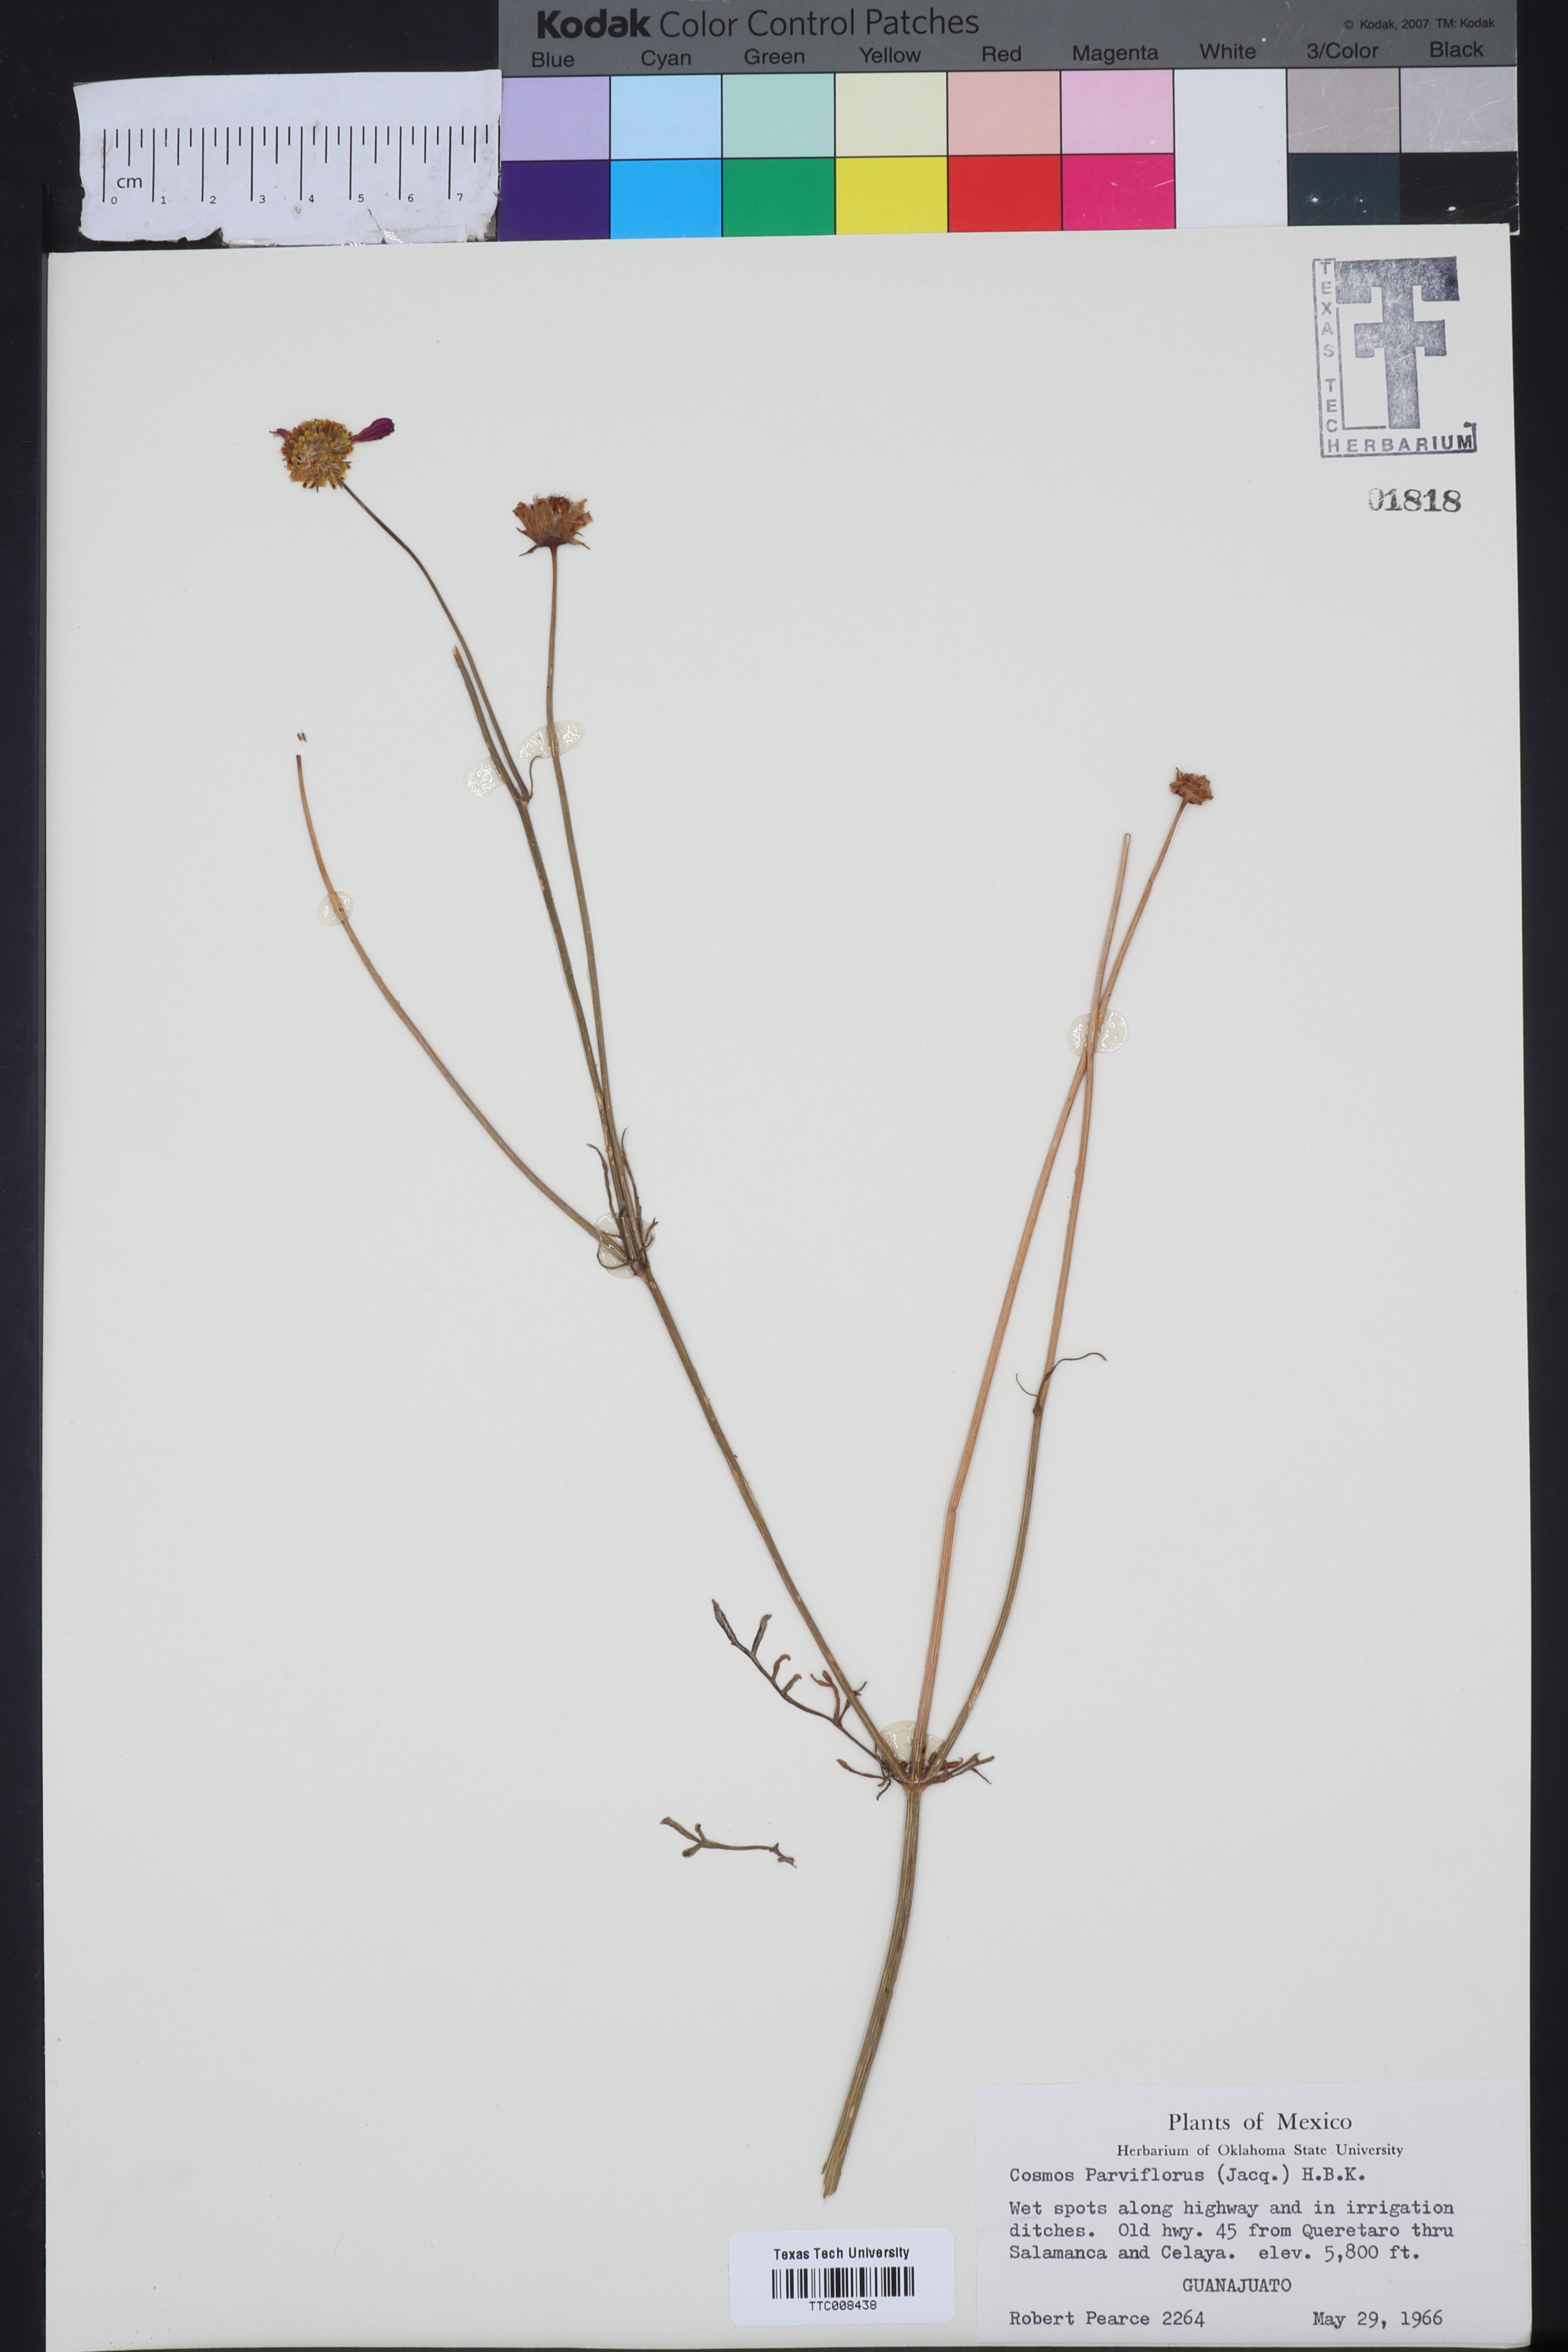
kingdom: Plantae
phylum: Tracheophyta
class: Magnoliopsida
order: Asterales
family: Asteraceae
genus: Cosmos
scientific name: Cosmos parviflorus
